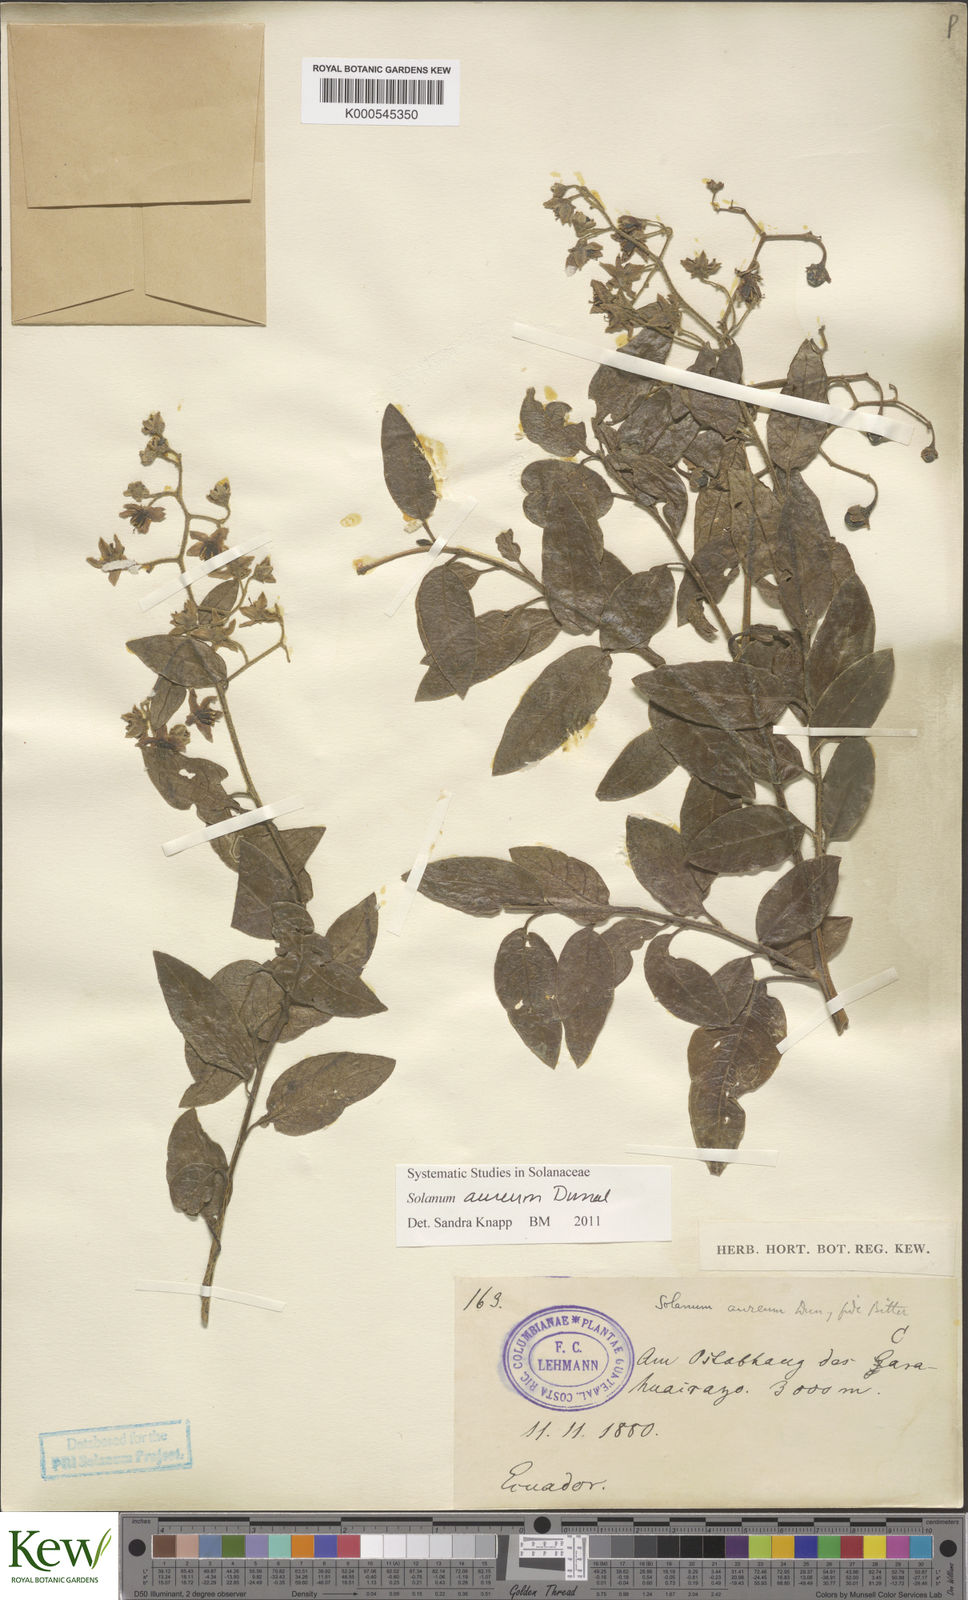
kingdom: Plantae
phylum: Tracheophyta
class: Magnoliopsida
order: Solanales
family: Solanaceae
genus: Solanum
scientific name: Solanum aureum
